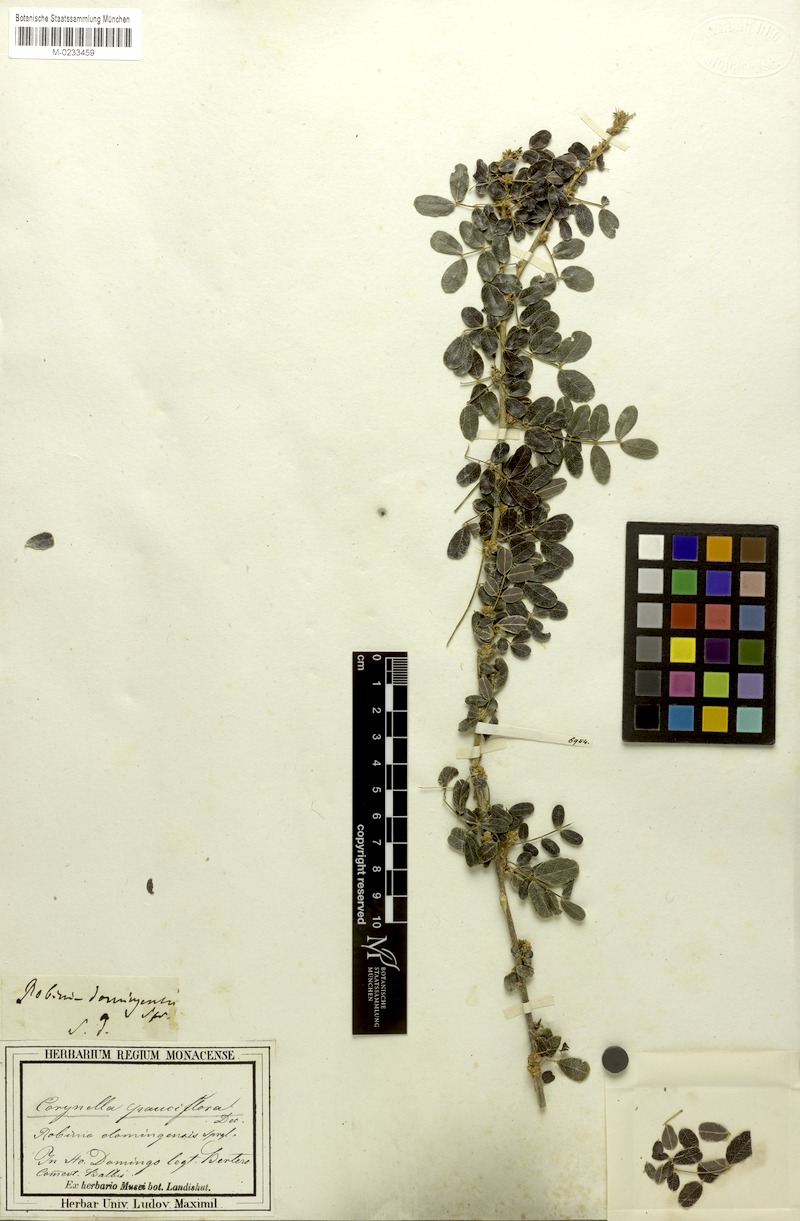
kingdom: Plantae
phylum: Tracheophyta
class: Magnoliopsida
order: Fabales
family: Fabaceae
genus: Poitea
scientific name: Poitea paucifolia
